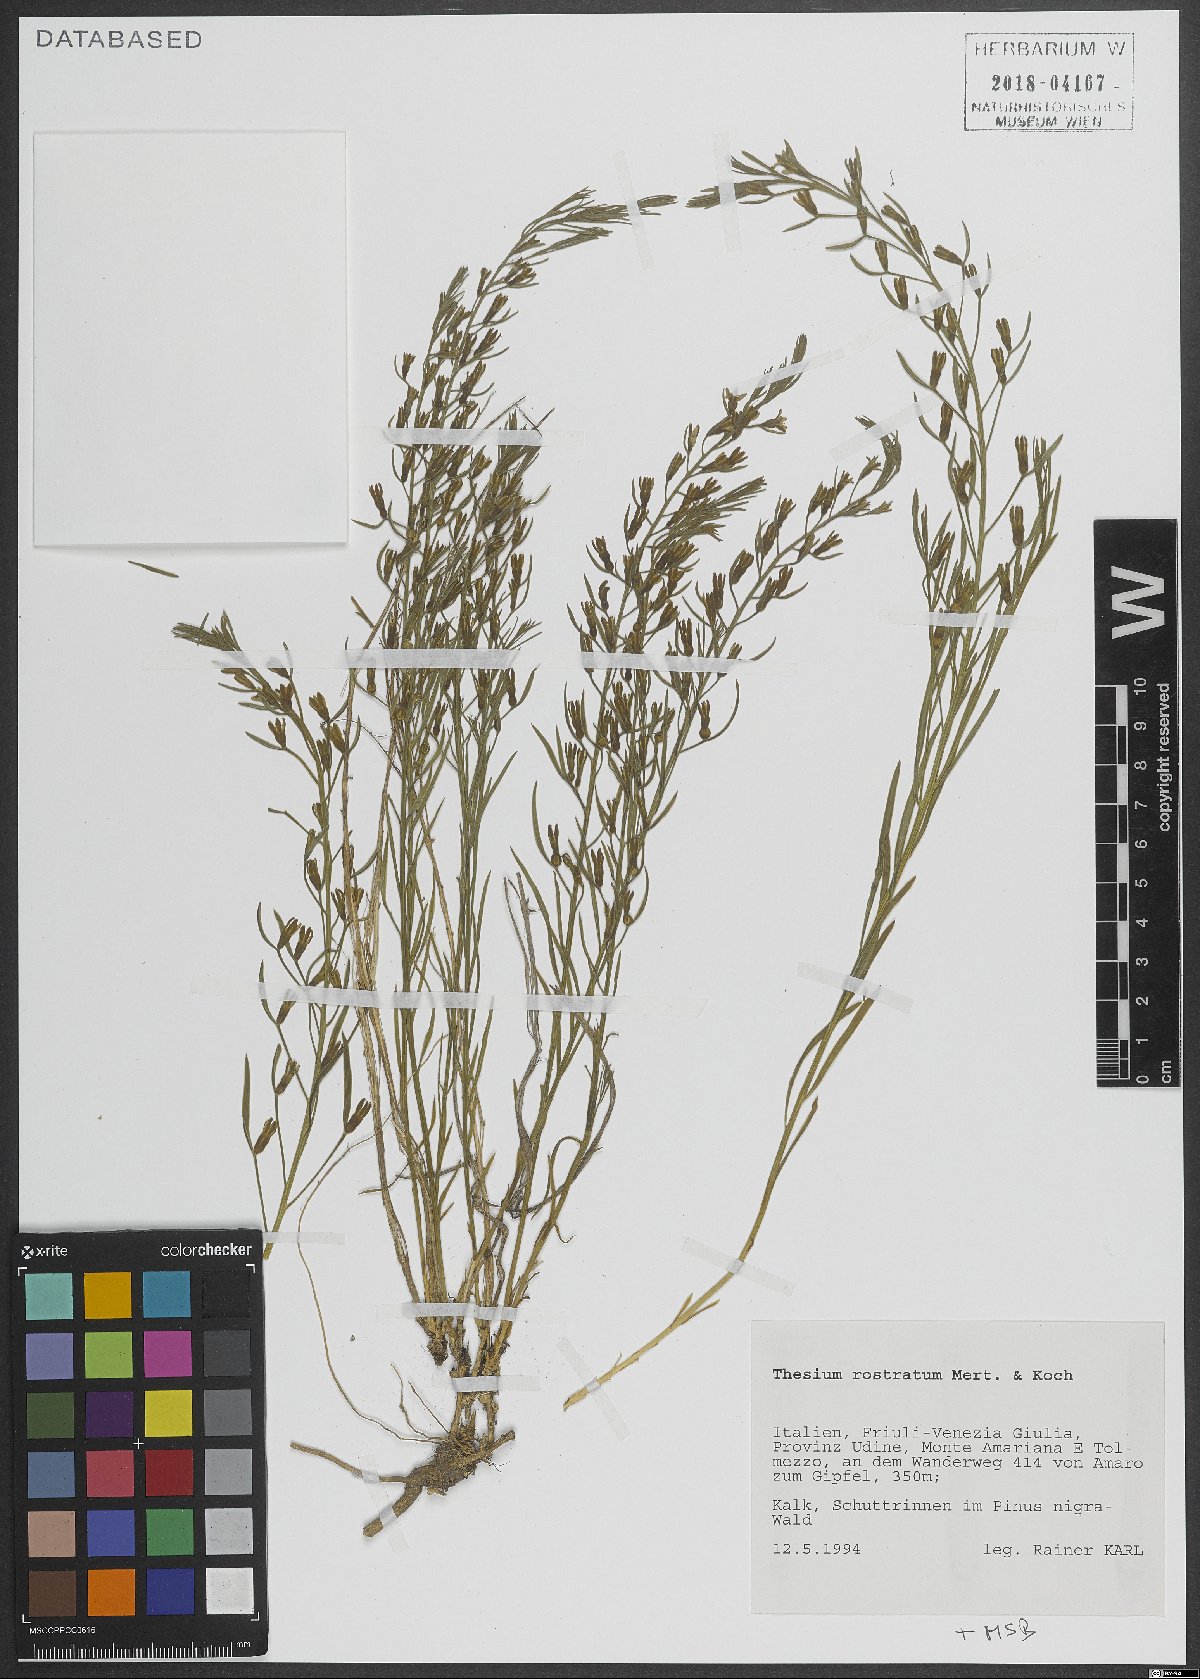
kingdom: Plantae
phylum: Tracheophyta
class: Magnoliopsida
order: Santalales
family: Thesiaceae
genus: Thesium
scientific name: Thesium rostratum
